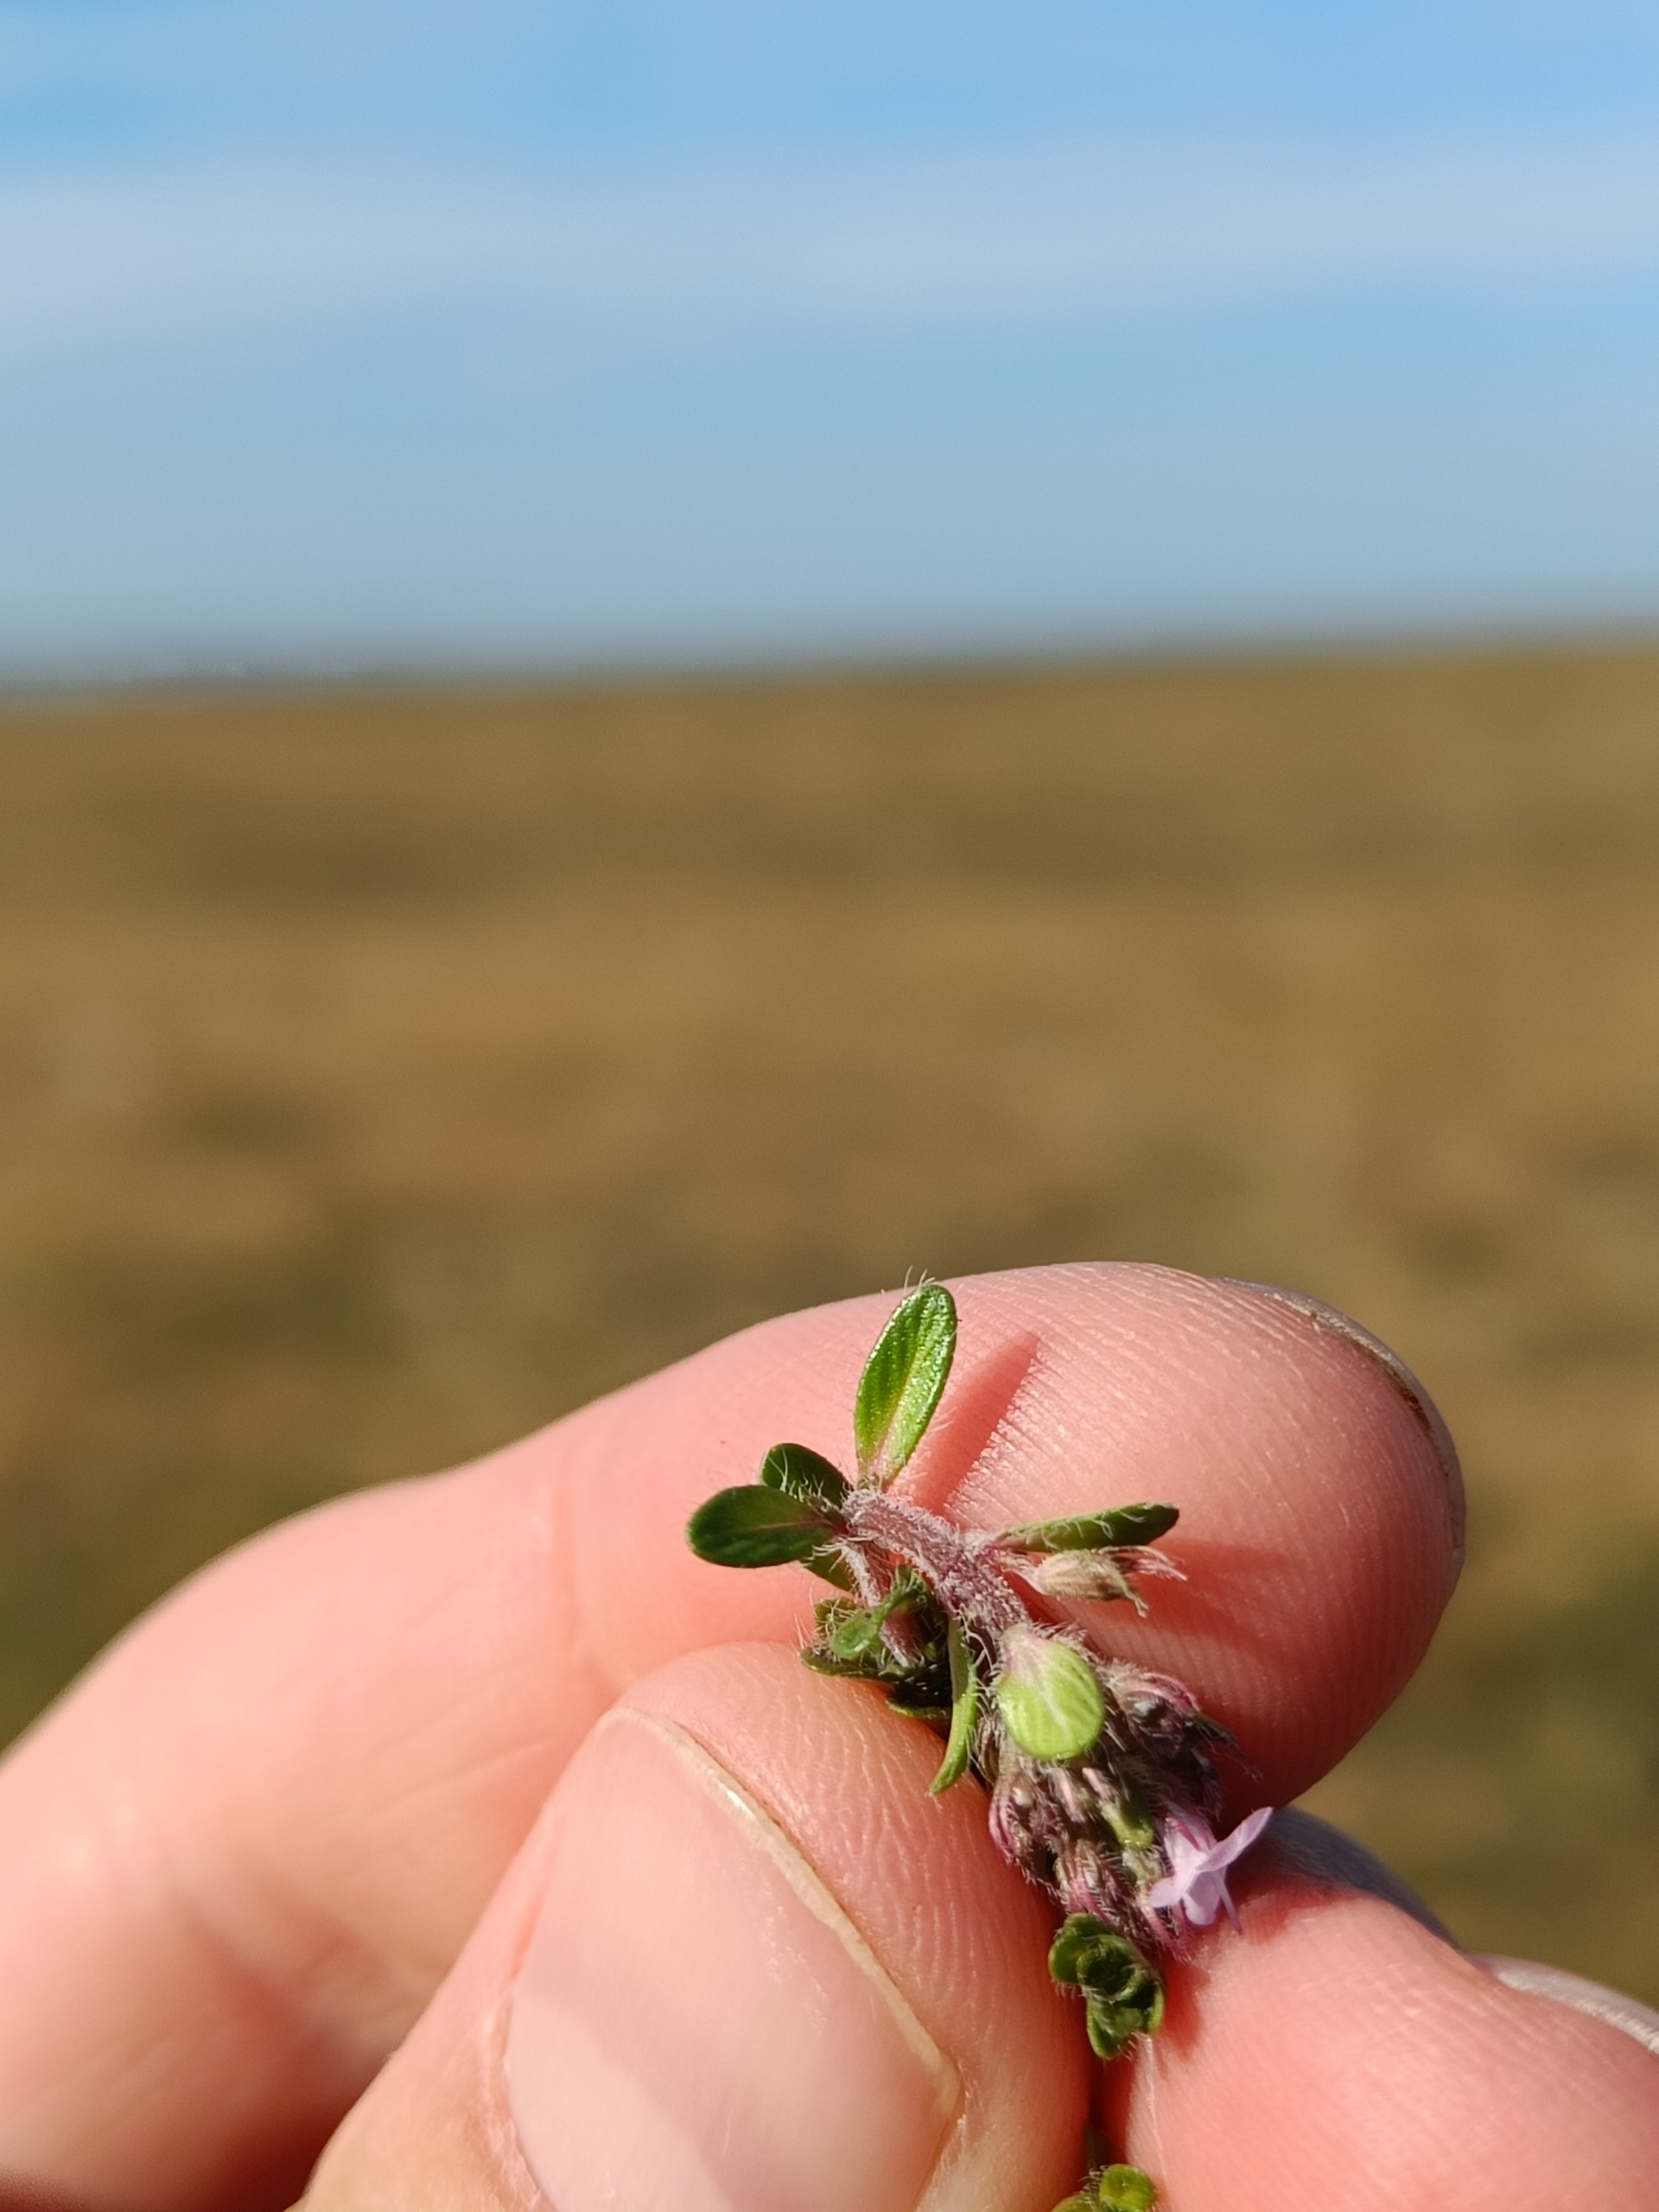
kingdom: Plantae
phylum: Tracheophyta
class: Magnoliopsida
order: Lamiales
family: Lamiaceae
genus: Thymus
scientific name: Thymus serpyllum
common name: Smalbladet timian
